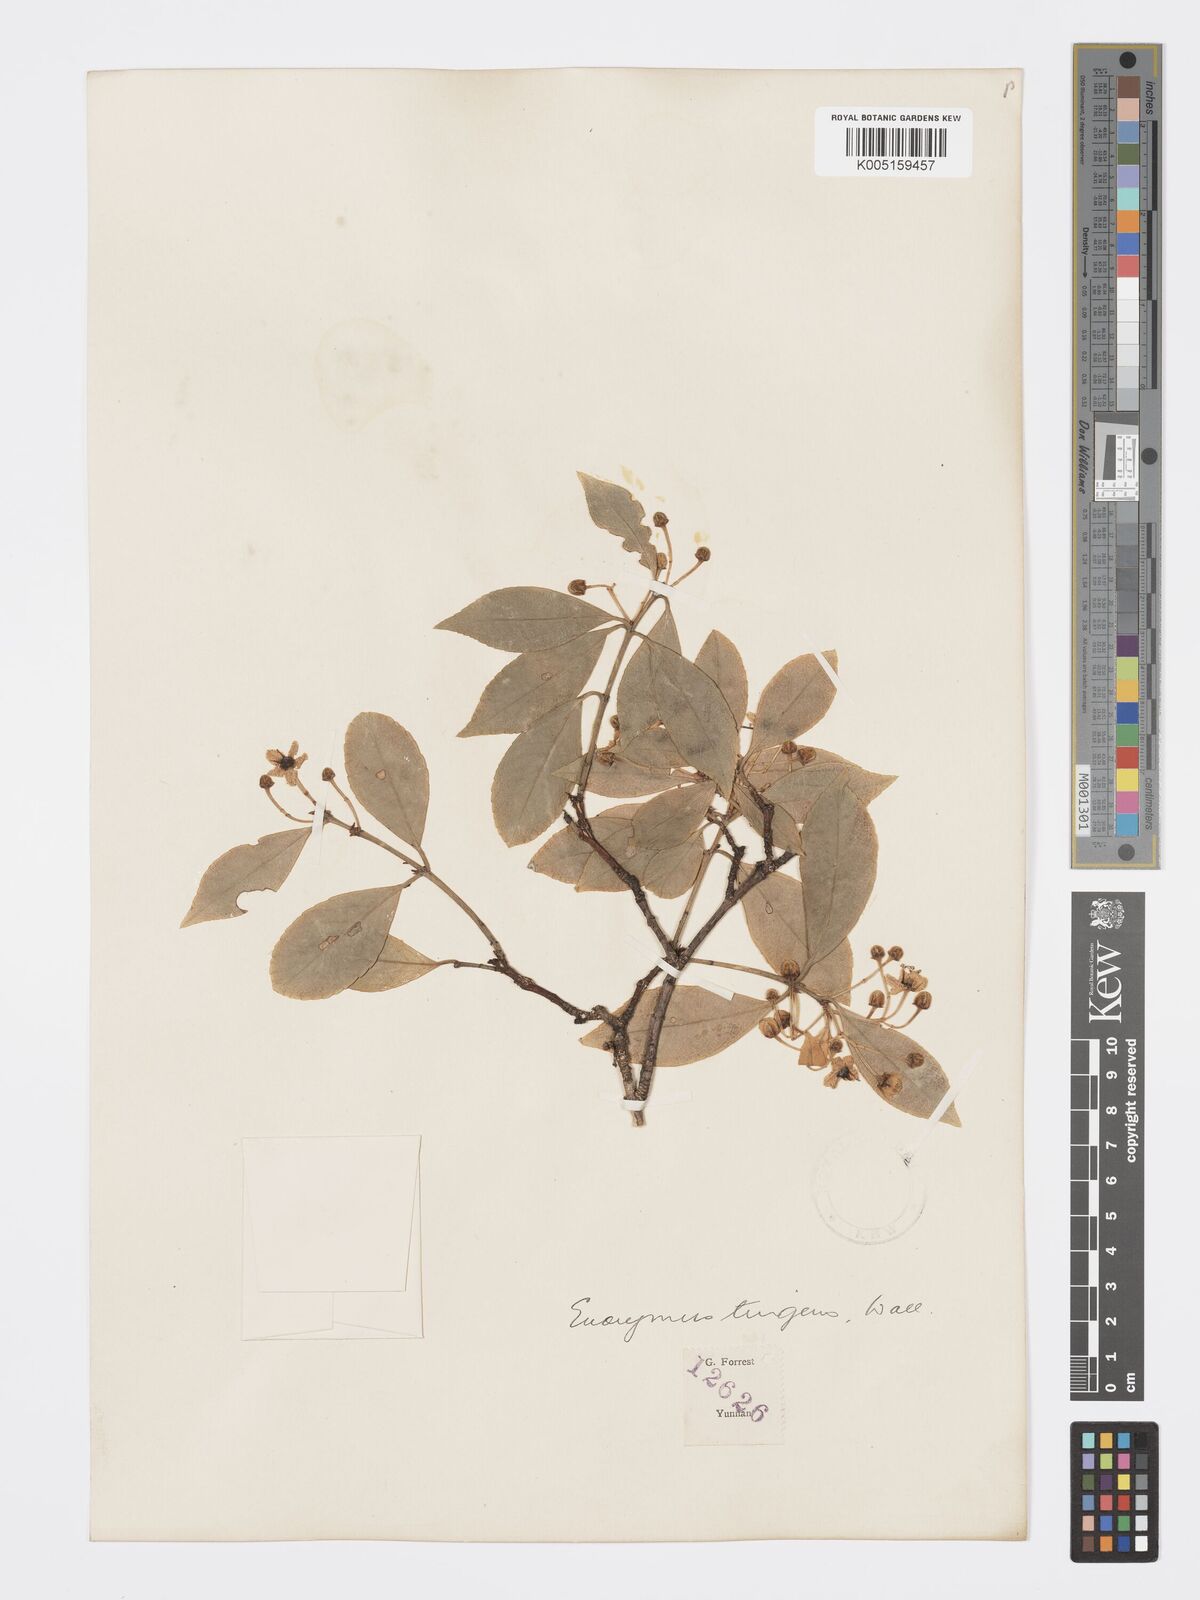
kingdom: Plantae
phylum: Tracheophyta
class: Magnoliopsida
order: Celastrales
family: Celastraceae
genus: Euonymus
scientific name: Euonymus tingens
